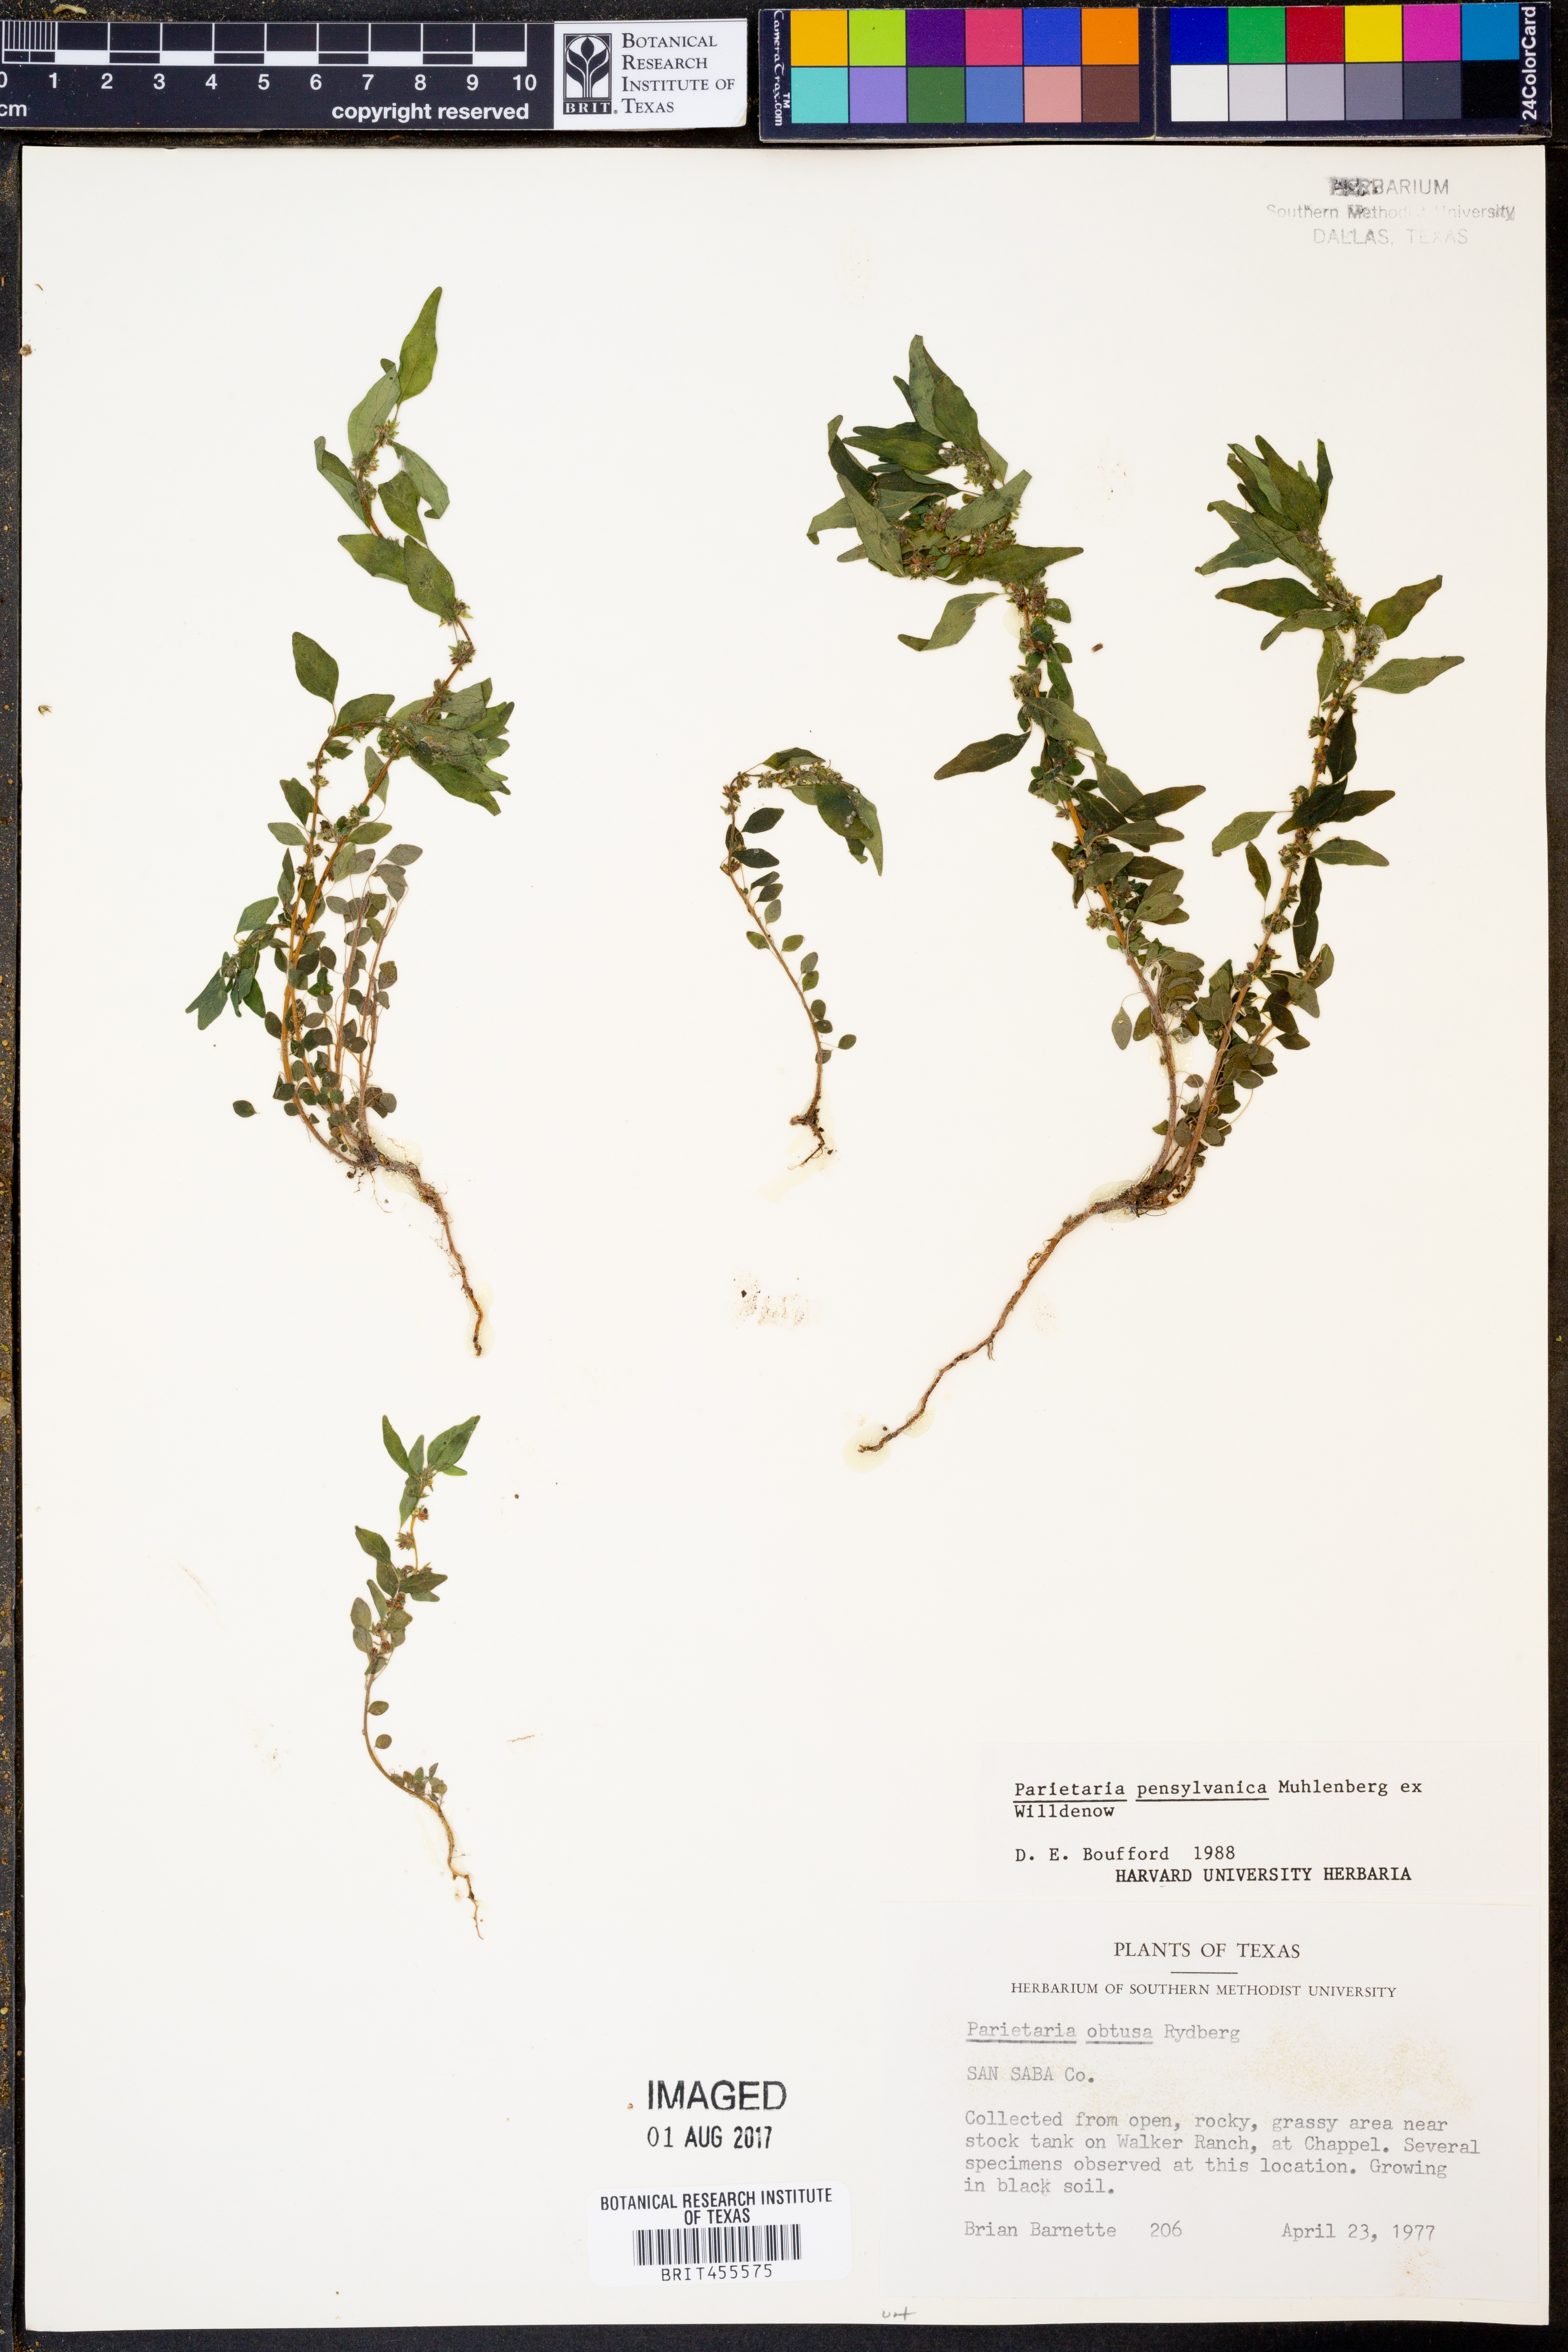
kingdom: Plantae
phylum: Tracheophyta
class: Magnoliopsida
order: Rosales
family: Urticaceae
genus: Parietaria
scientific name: Parietaria pensylvanica
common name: Pennsylvania pellitory
